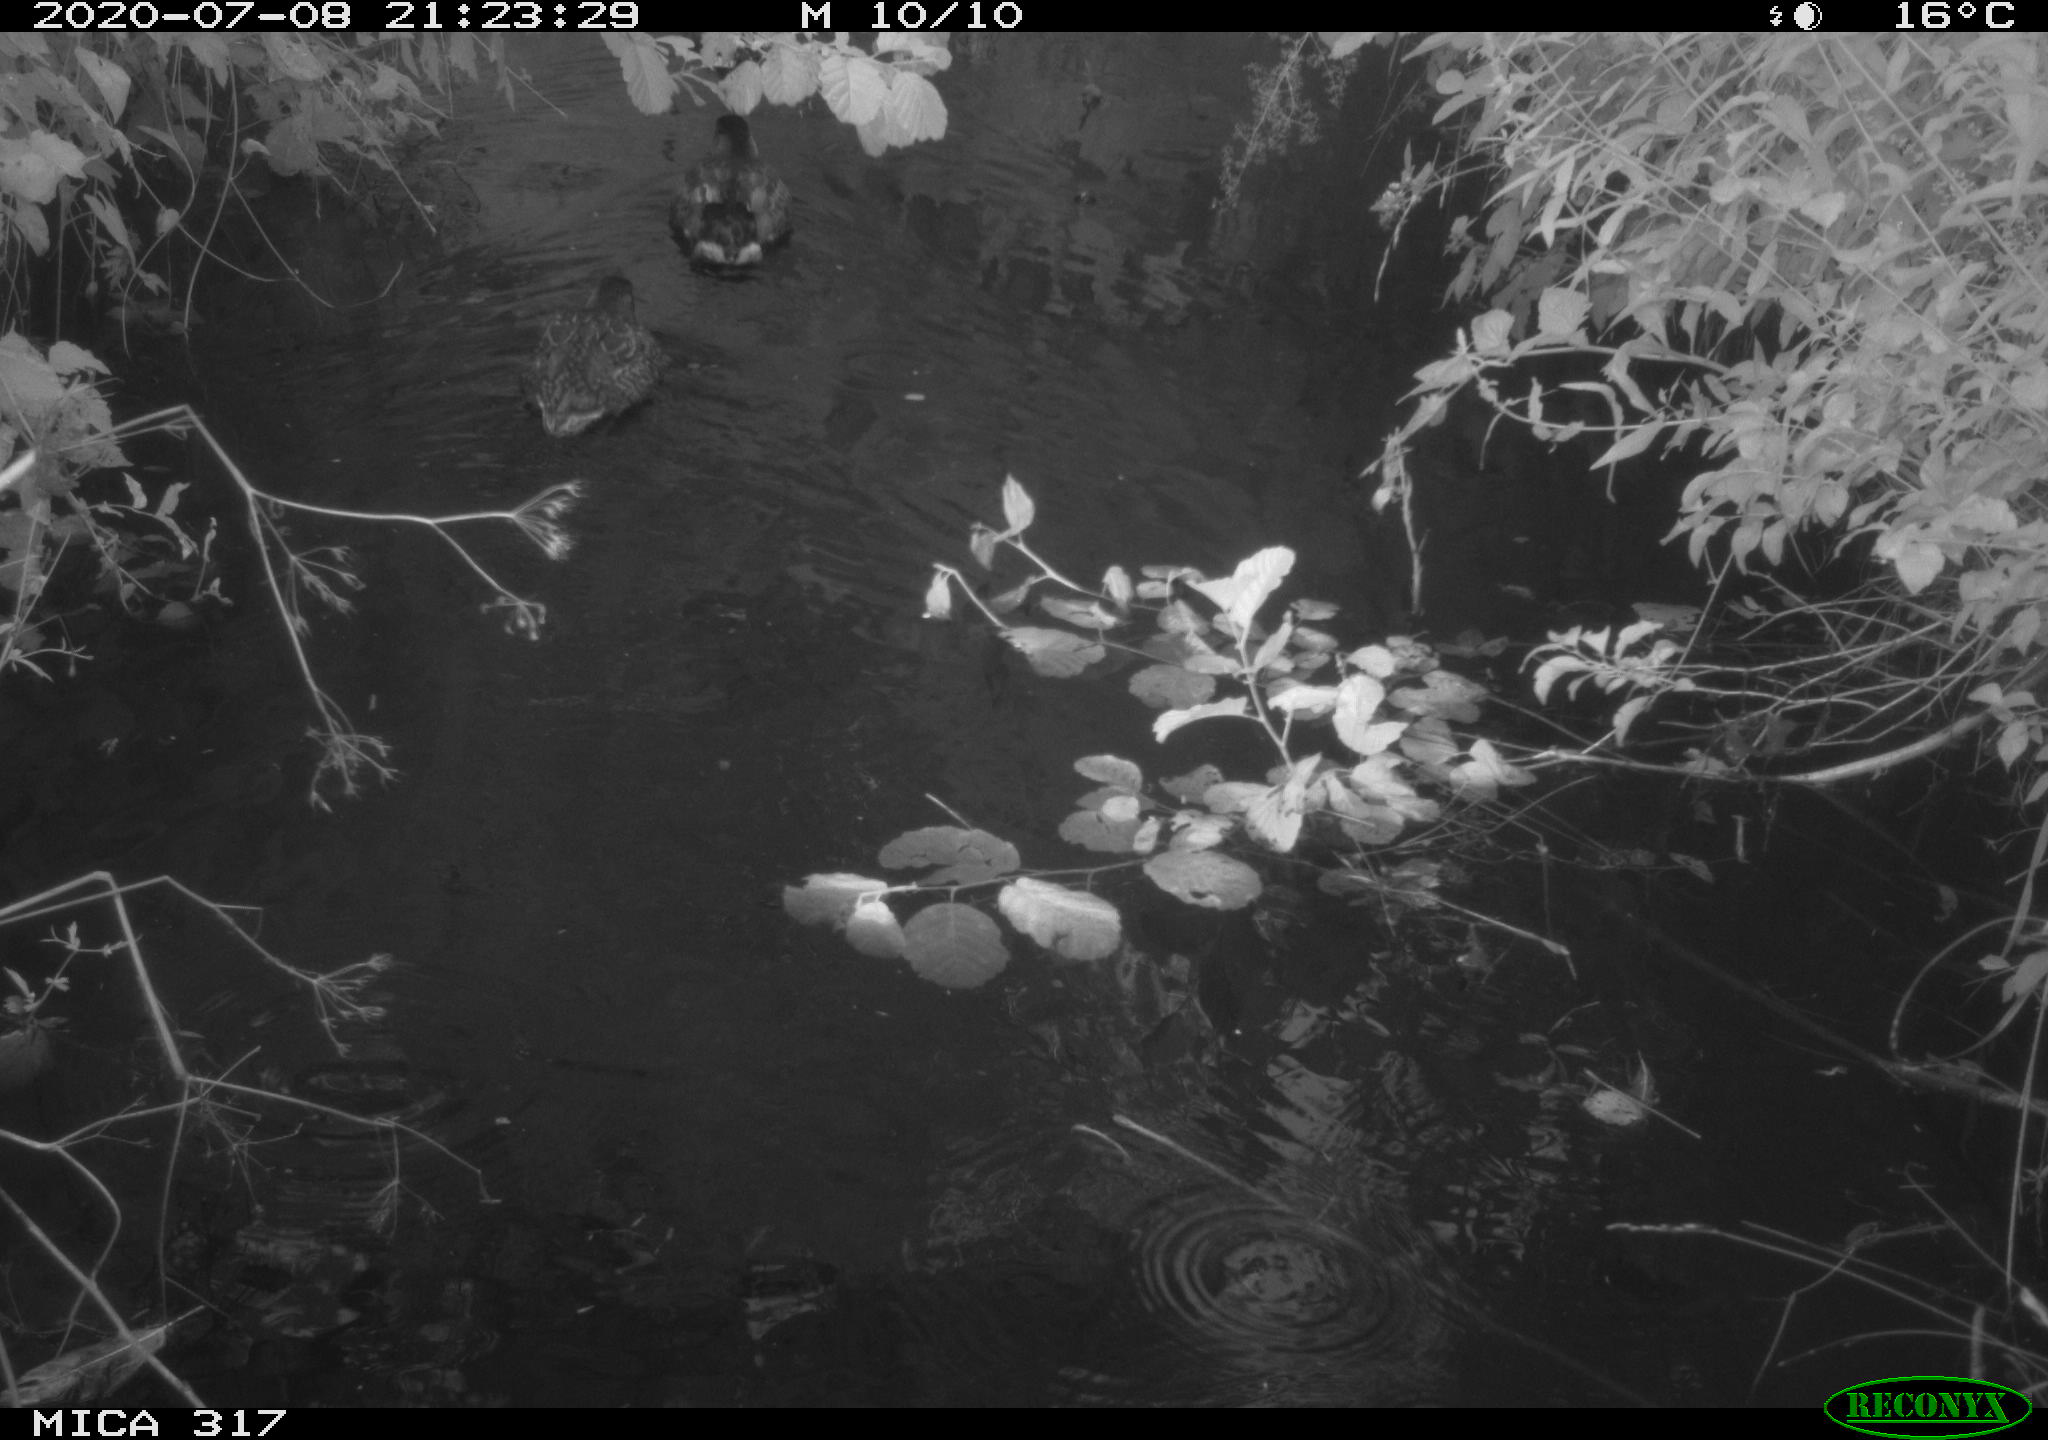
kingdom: Animalia
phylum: Chordata
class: Aves
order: Anseriformes
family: Anatidae
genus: Anas
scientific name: Anas platyrhynchos
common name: Mallard
